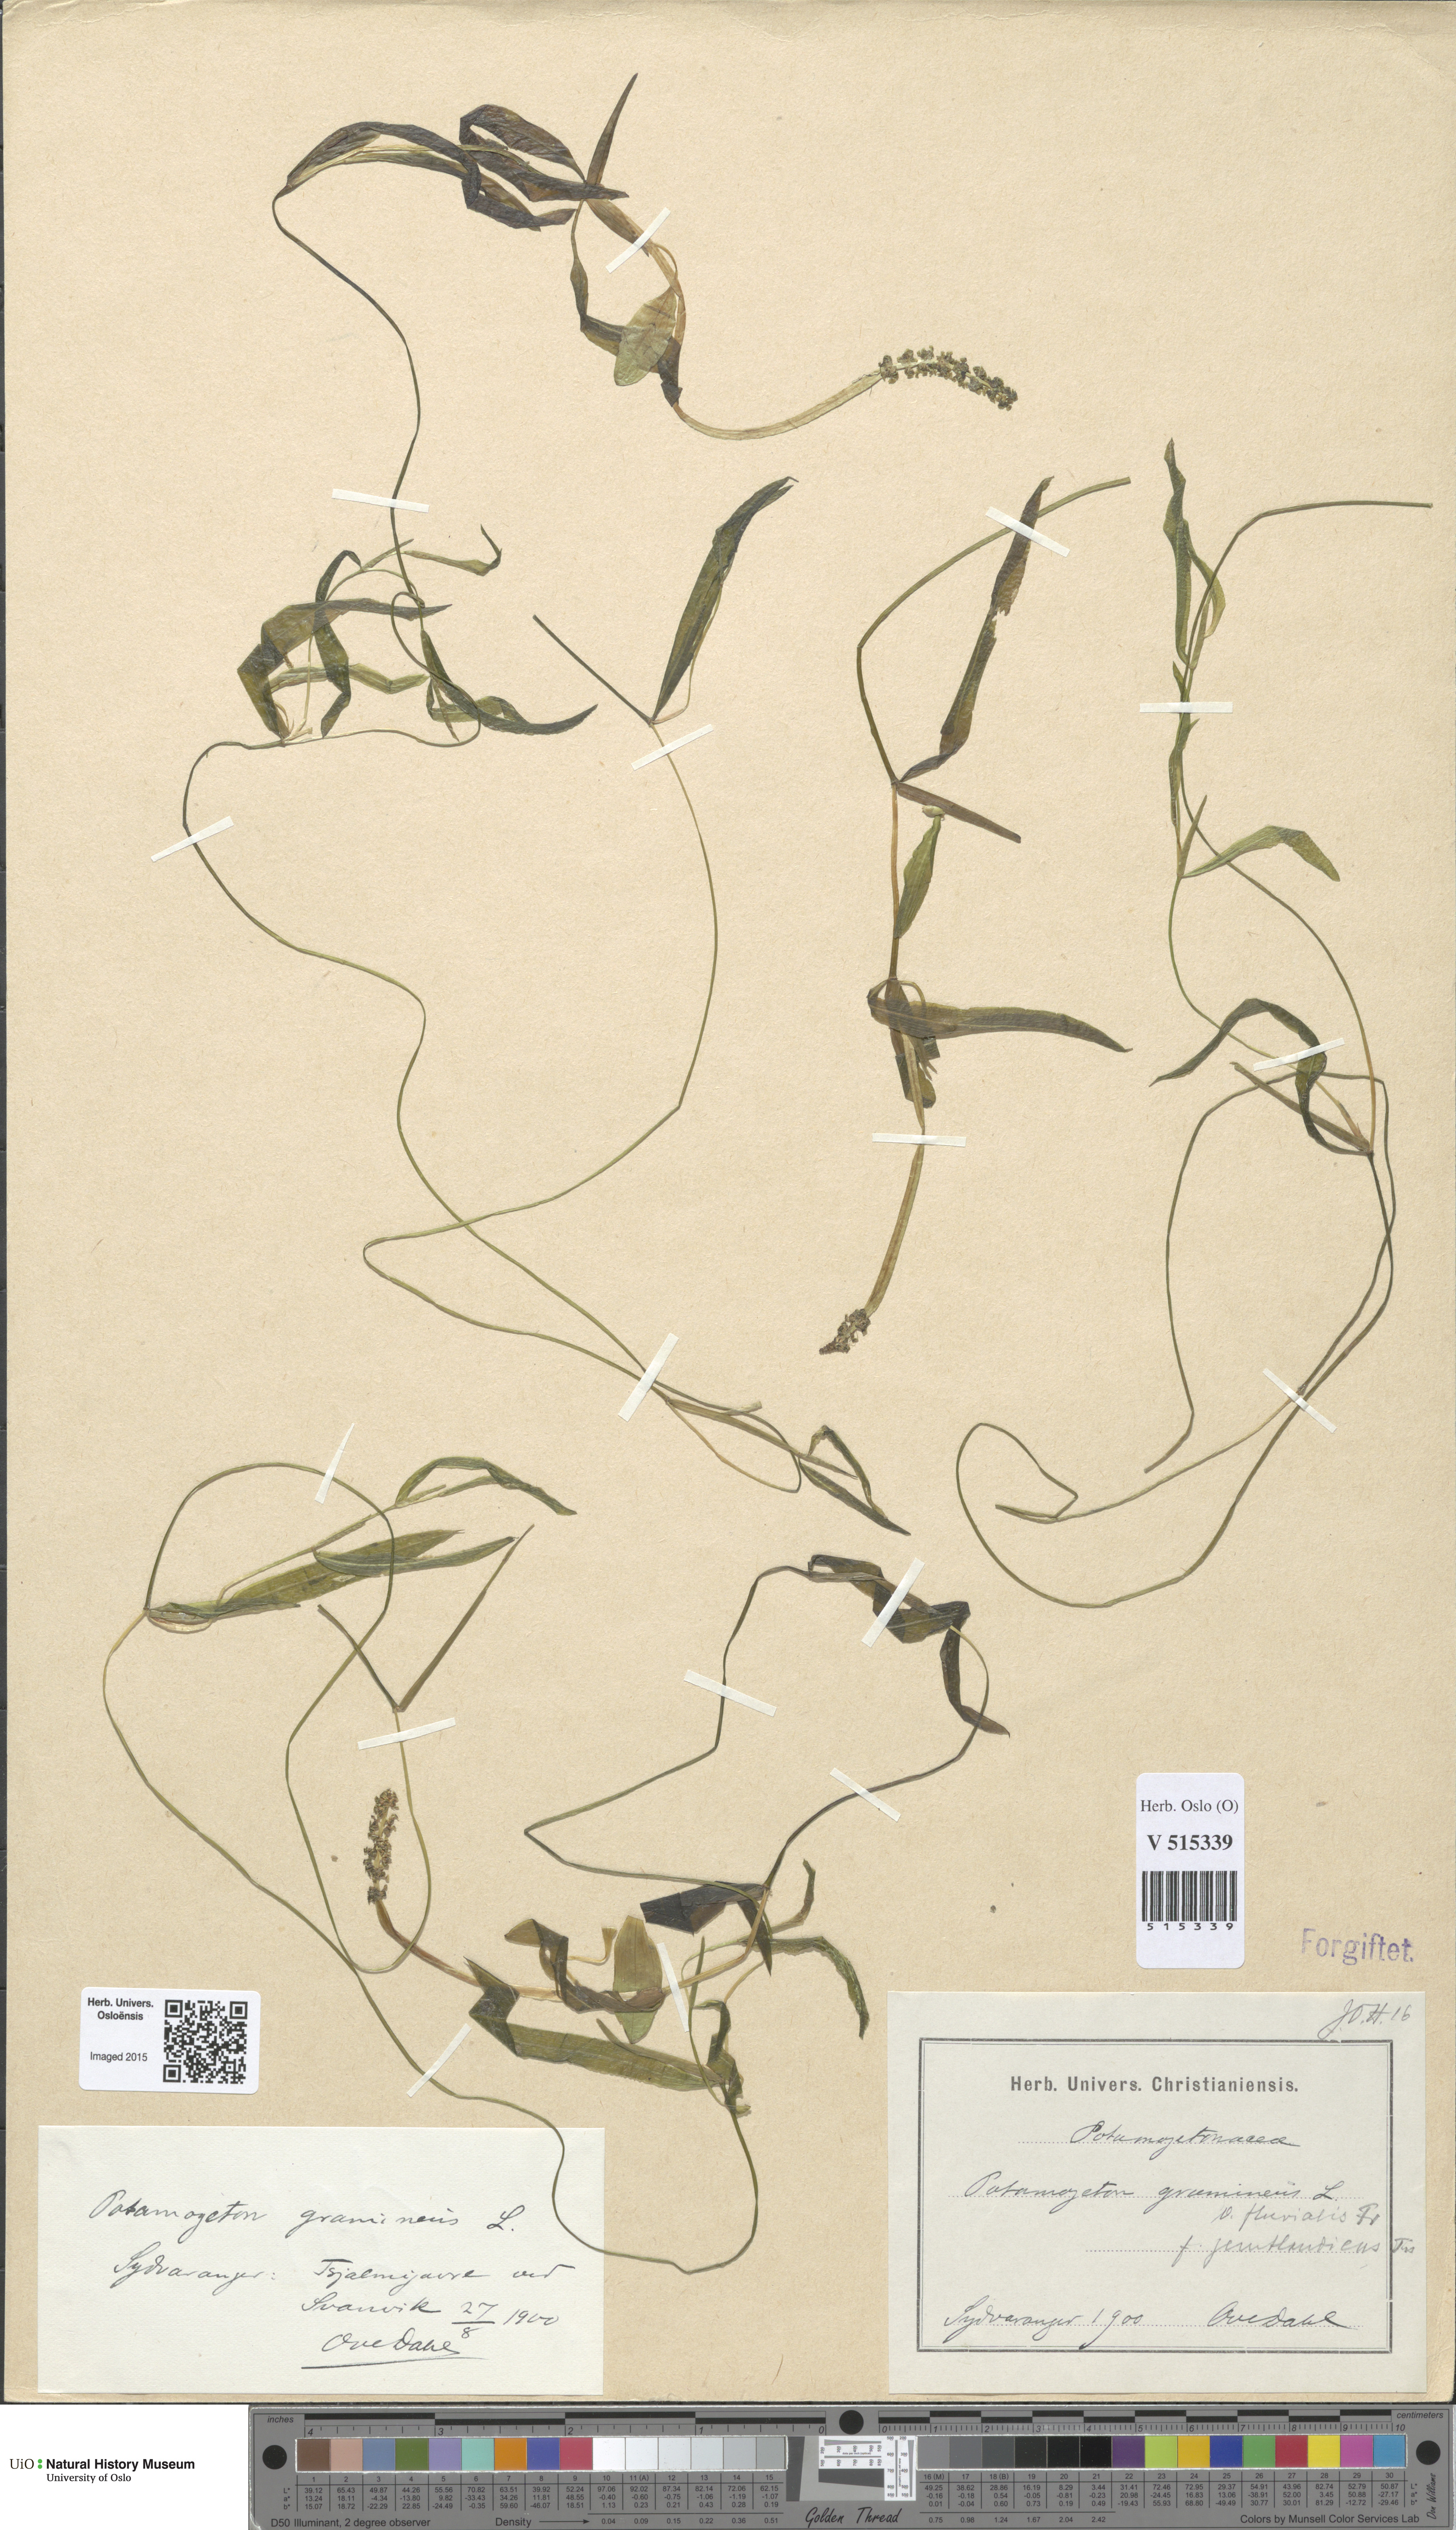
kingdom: Plantae
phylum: Tracheophyta
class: Liliopsida
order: Alismatales
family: Potamogetonaceae
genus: Potamogeton
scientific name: Potamogeton gramineus
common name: Various-leaved pondweed
